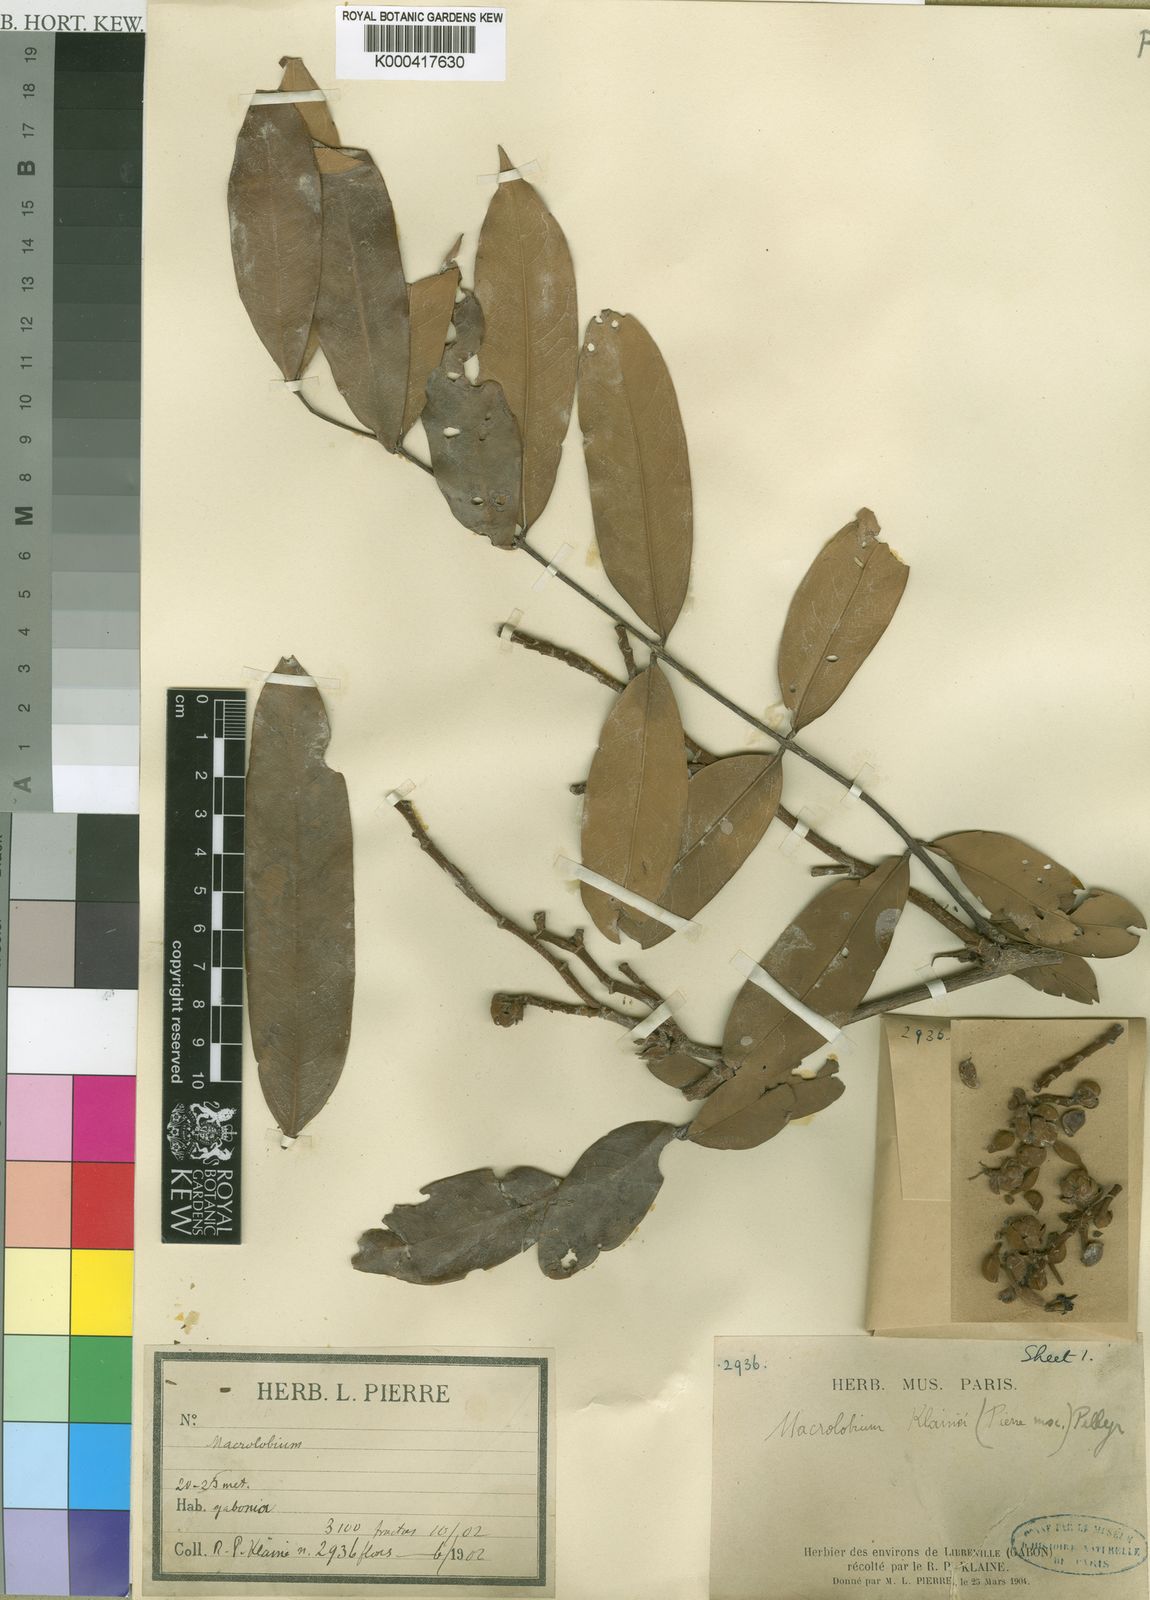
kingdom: Plantae
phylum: Tracheophyta
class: Magnoliopsida
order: Fabales
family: Fabaceae
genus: Gilbertiodendron
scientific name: Gilbertiodendron
